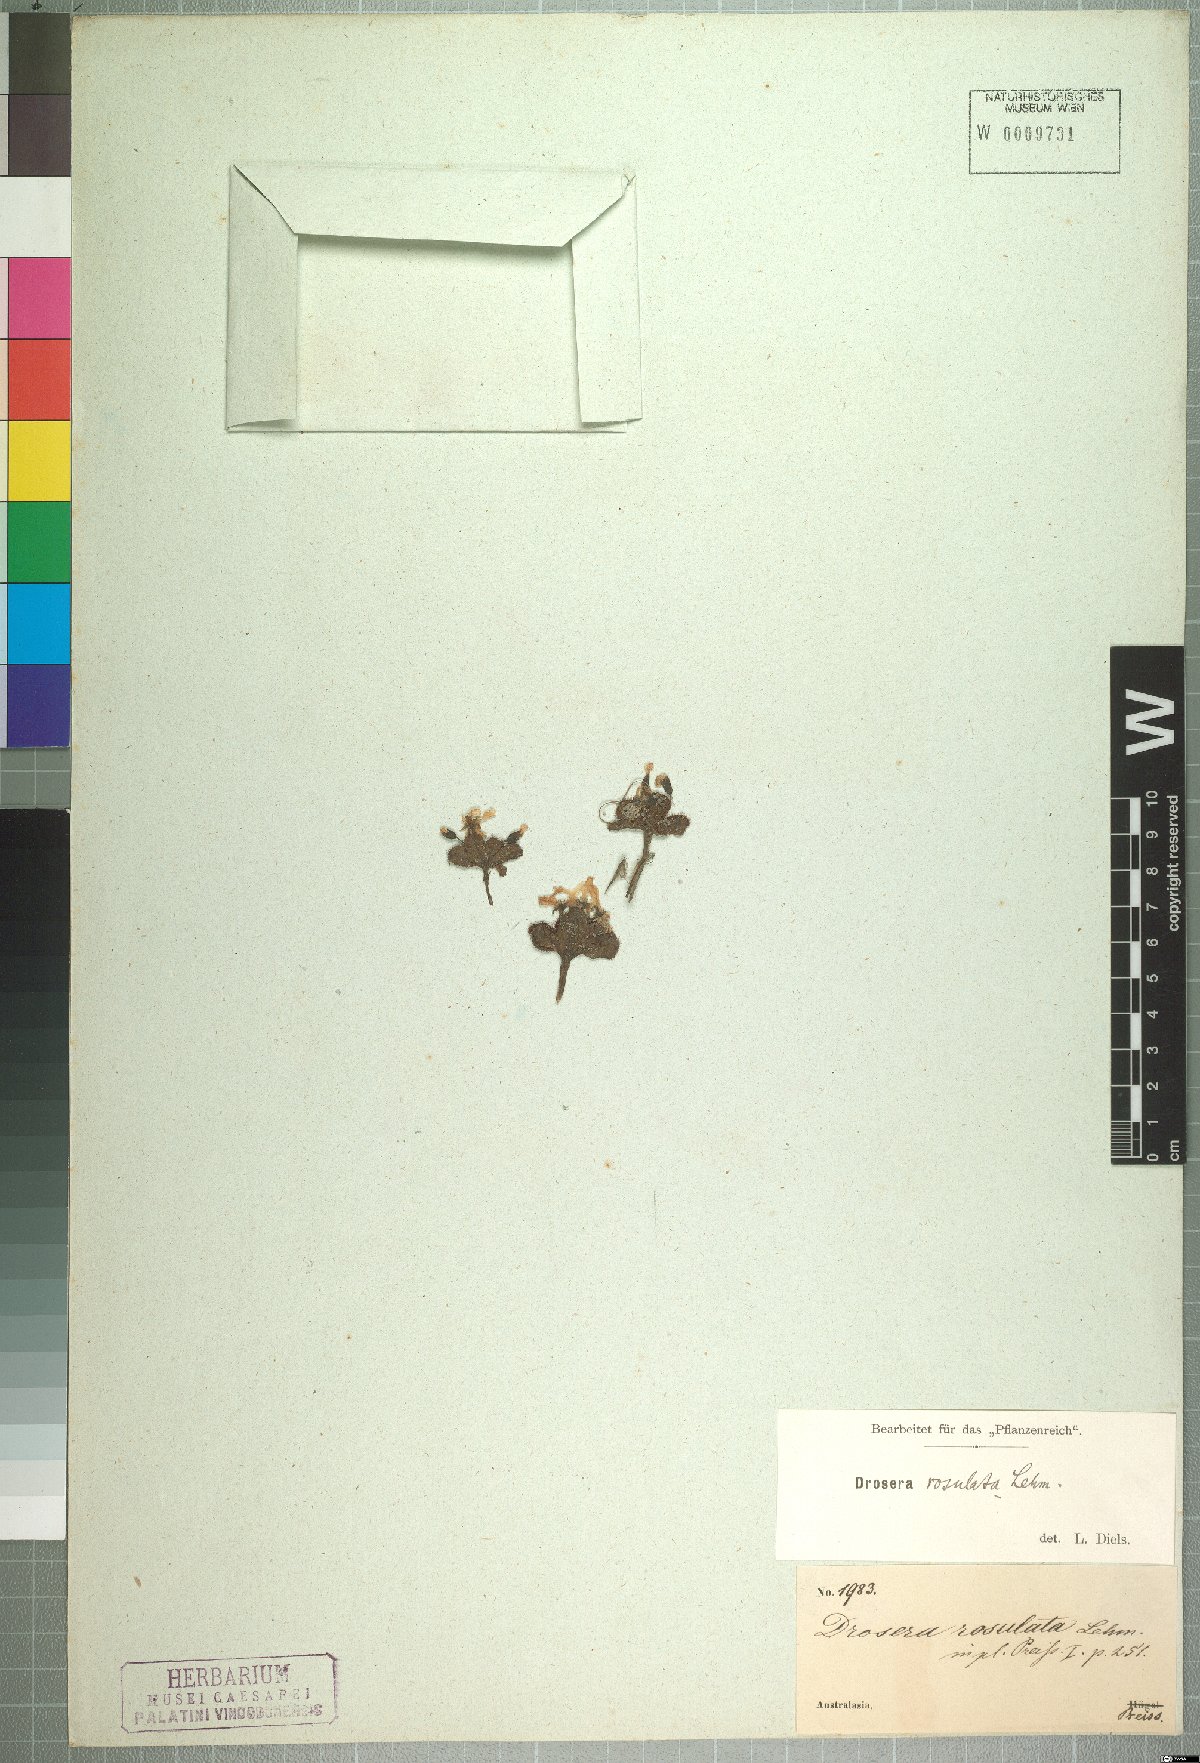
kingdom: Plantae
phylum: Tracheophyta
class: Magnoliopsida
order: Caryophyllales
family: Droseraceae
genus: Drosera
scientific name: Drosera rosulata
